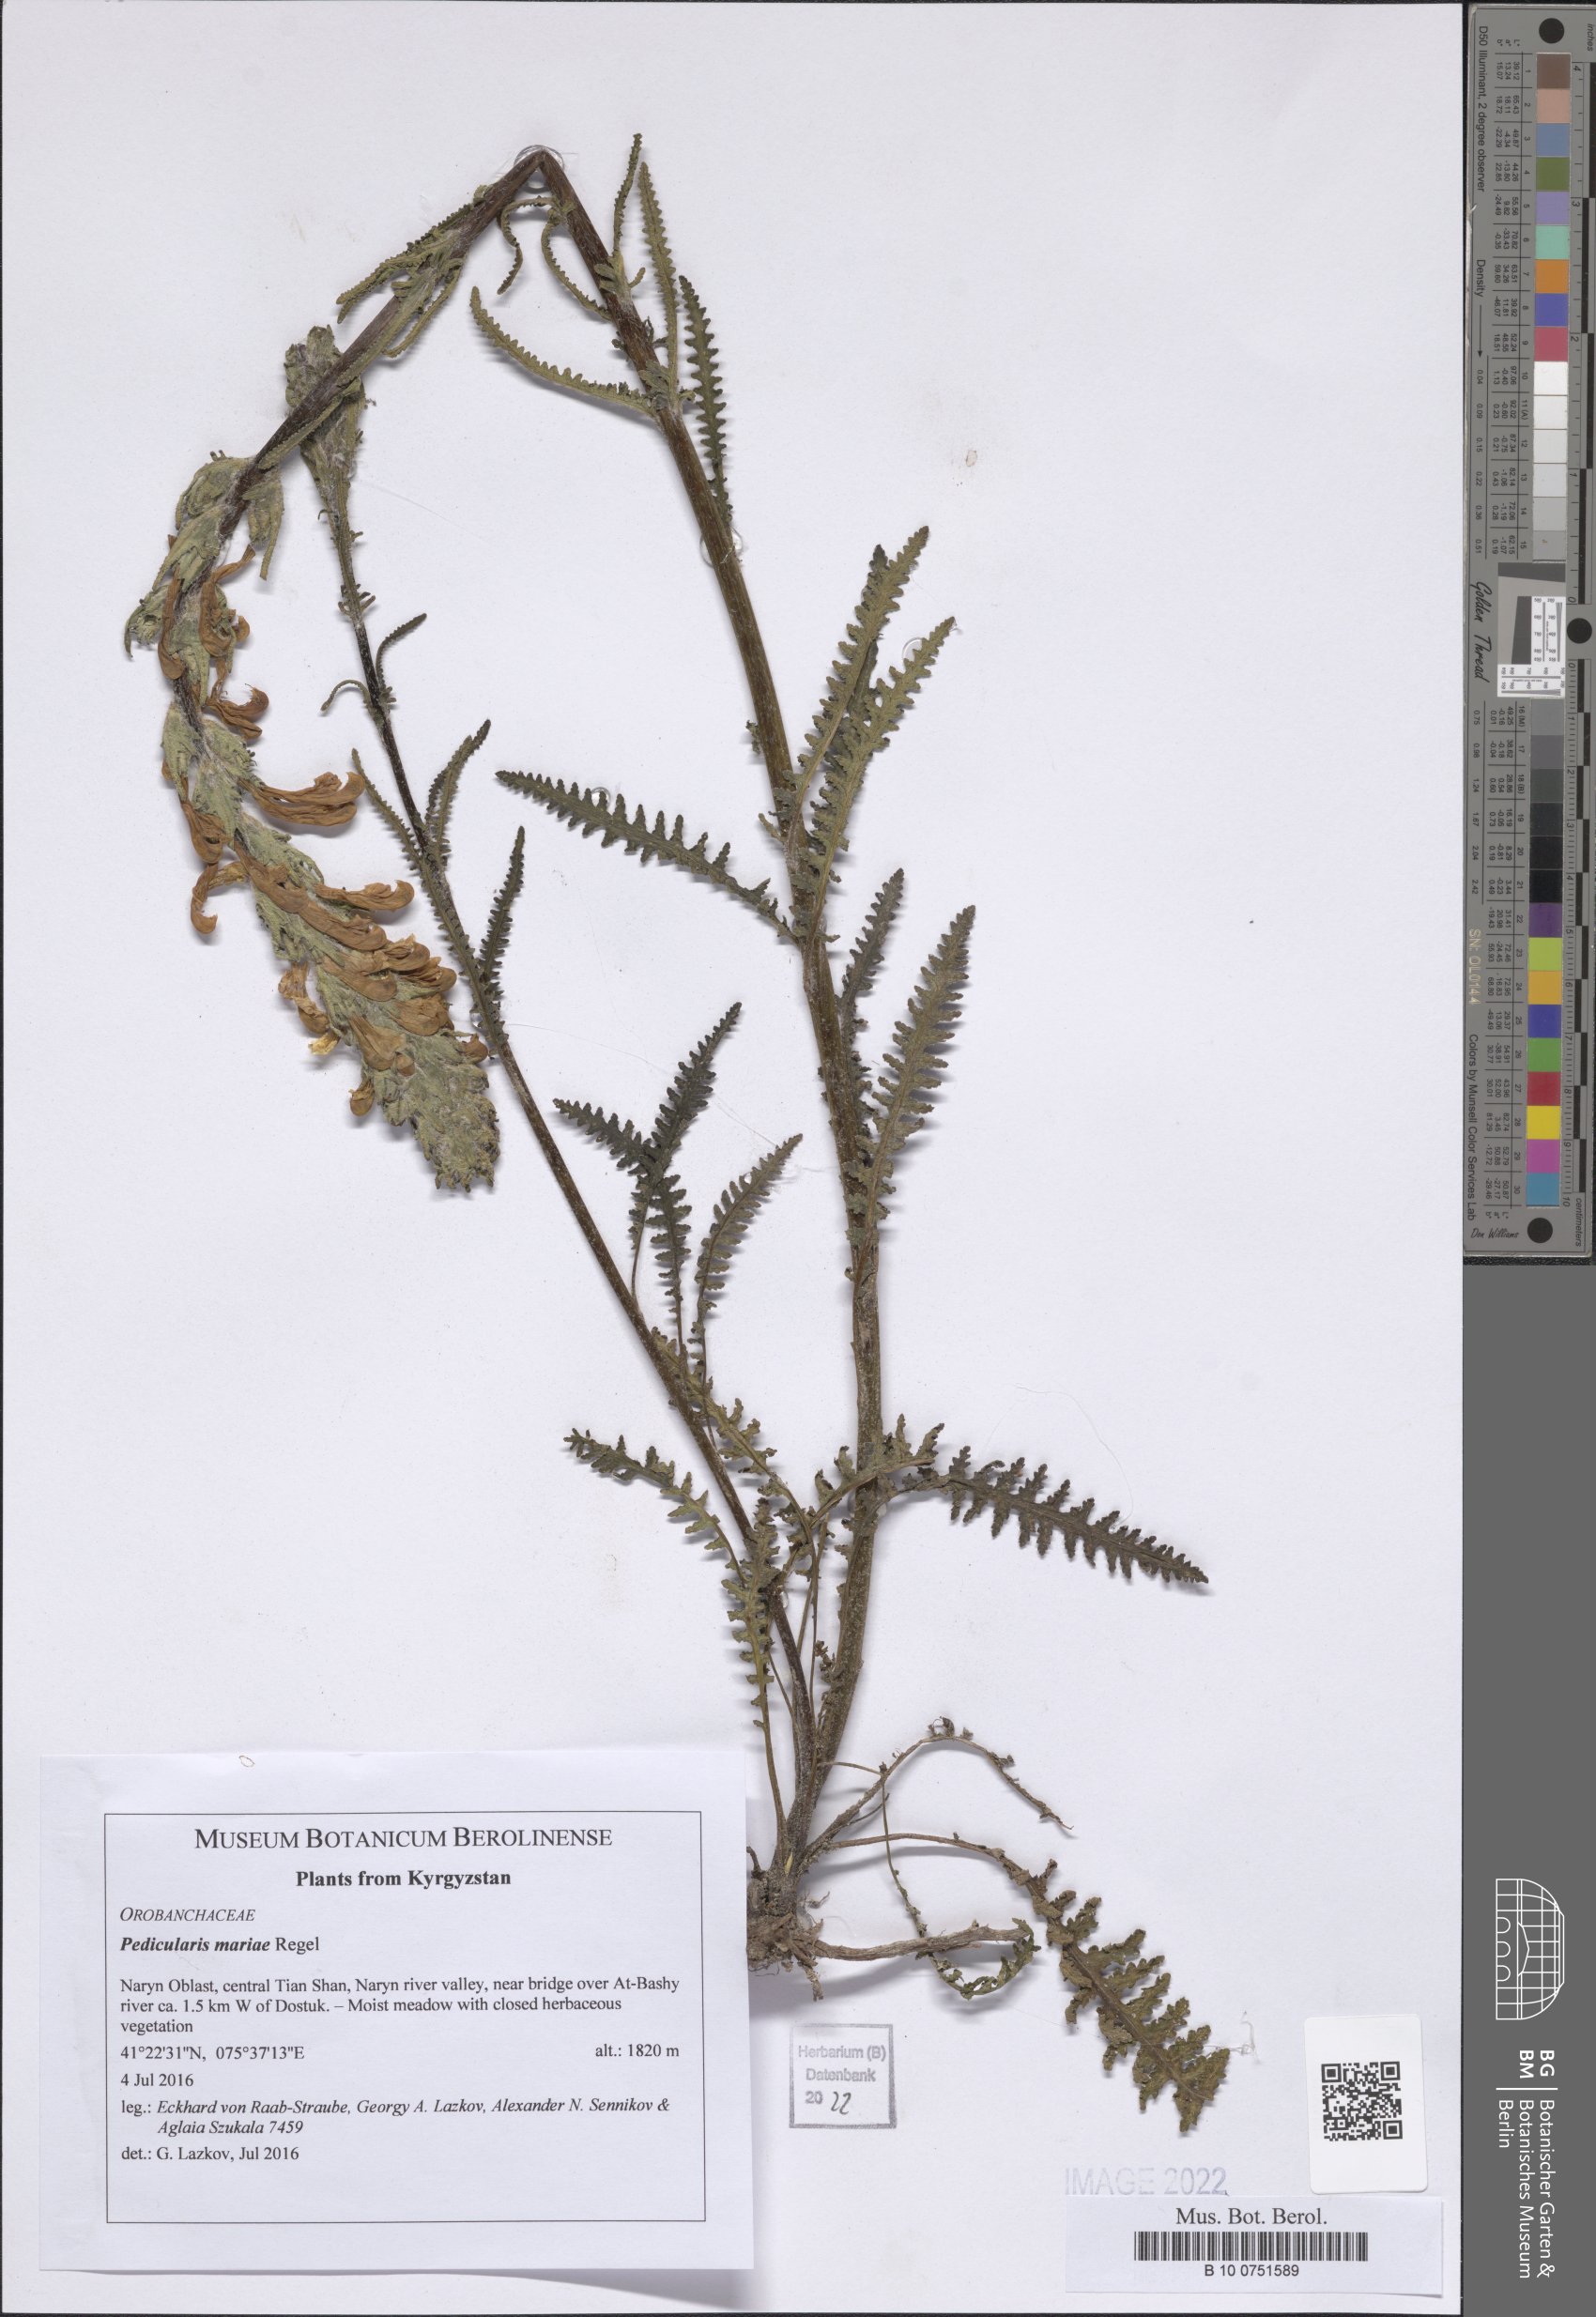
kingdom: Plantae
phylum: Tracheophyta
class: Magnoliopsida
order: Lamiales
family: Orobanchaceae
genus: Pedicularis
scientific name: Pedicularis mariae
